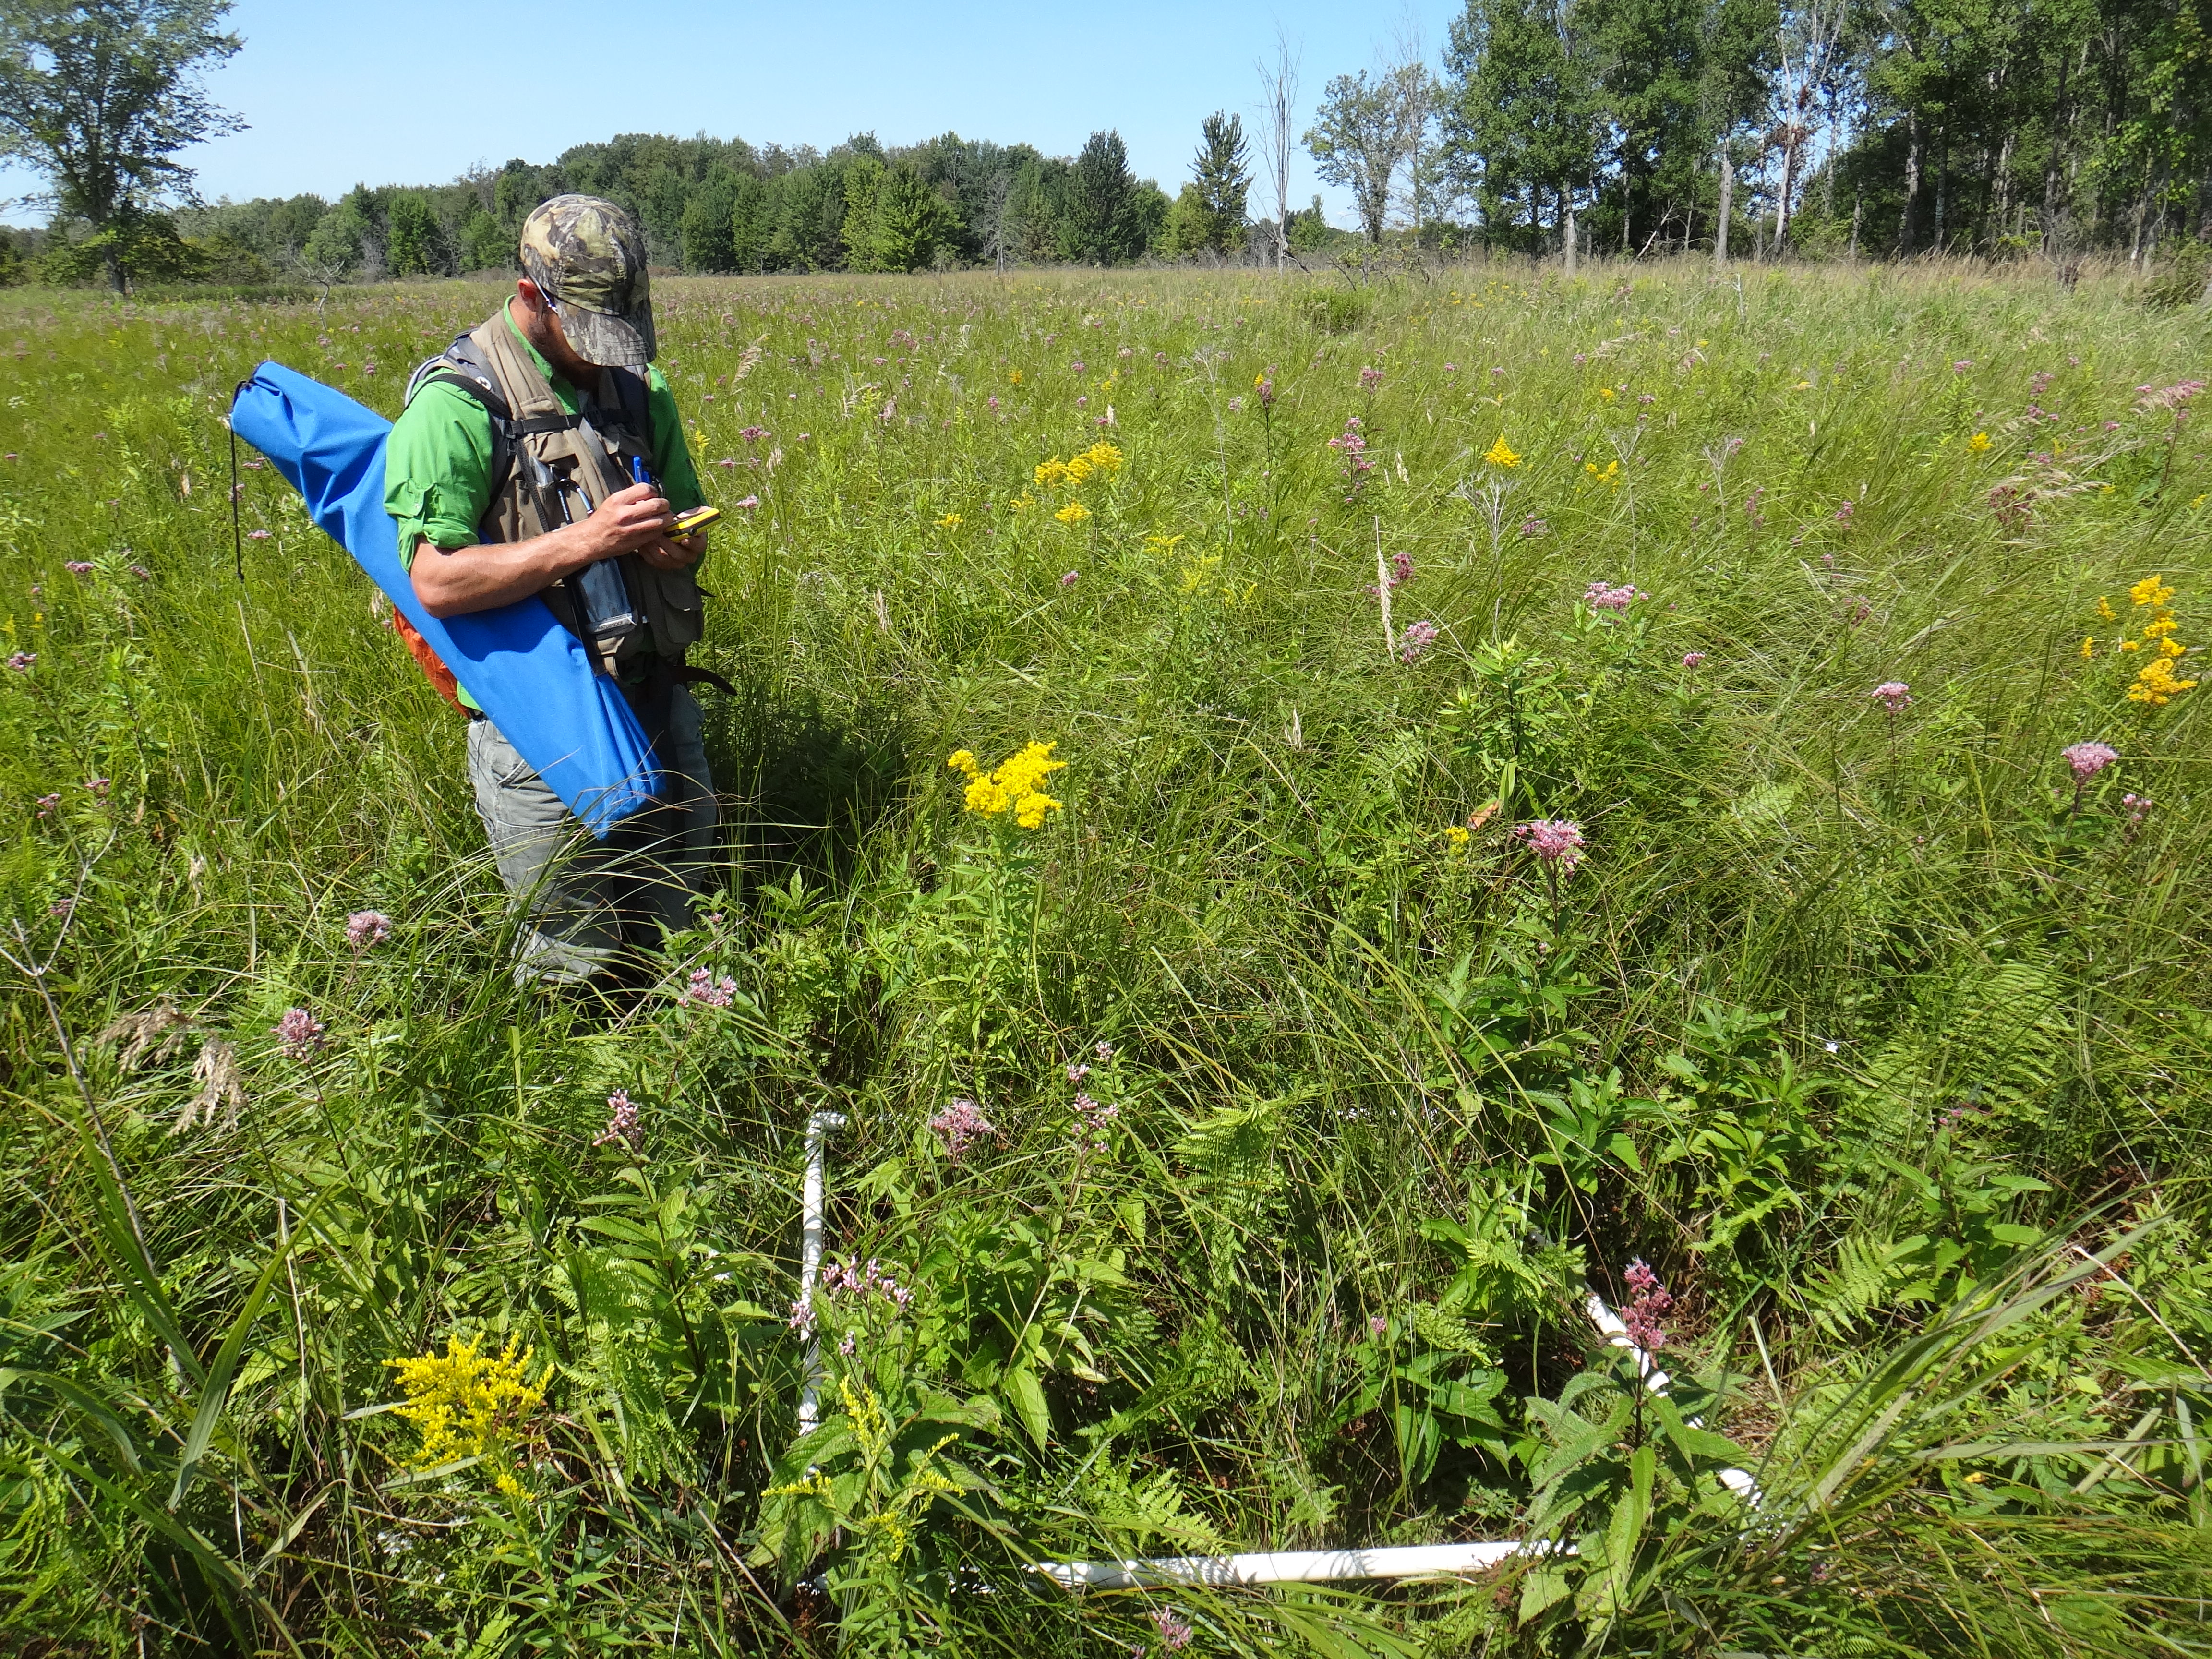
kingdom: Plantae
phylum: Tracheophyta
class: Polypodiopsida
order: Polypodiales
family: Thelypteridaceae
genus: Thelypteris
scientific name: Thelypteris palustris
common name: Marsh fern
